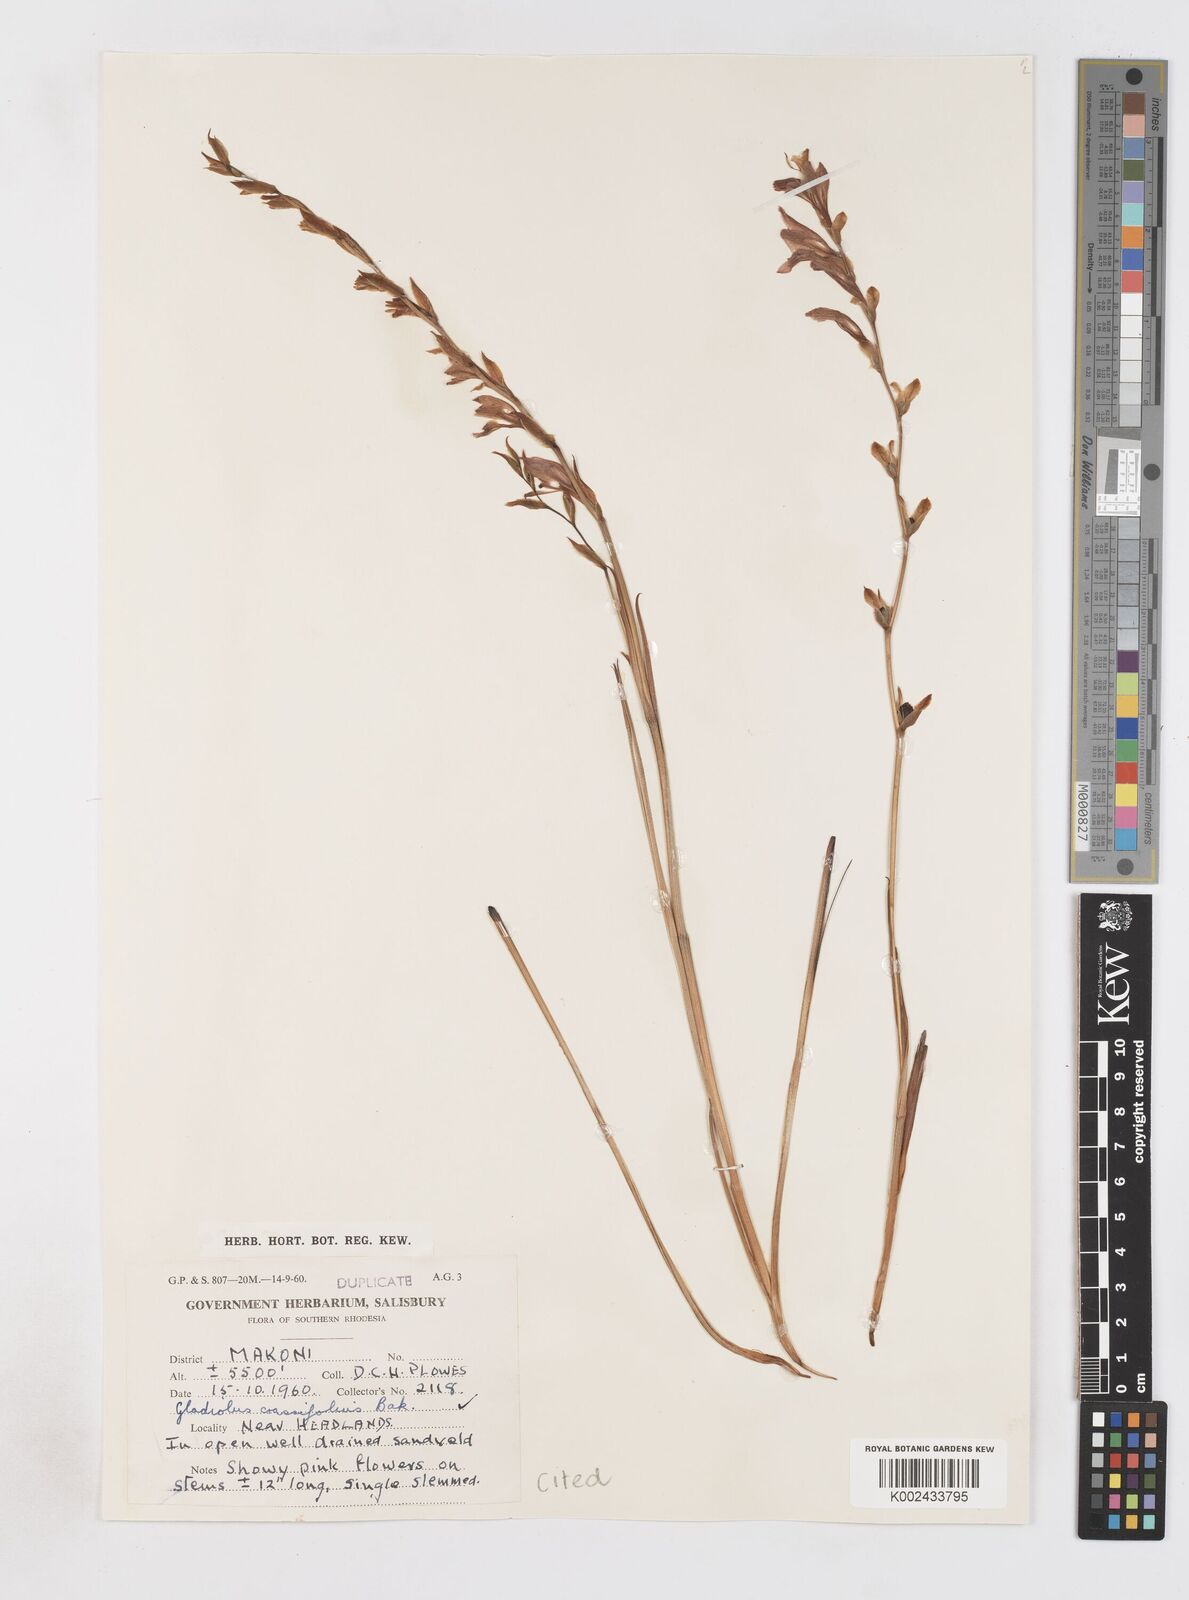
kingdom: Plantae
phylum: Tracheophyta
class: Liliopsida
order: Asparagales
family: Iridaceae
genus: Gladiolus
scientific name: Gladiolus crassifolius
